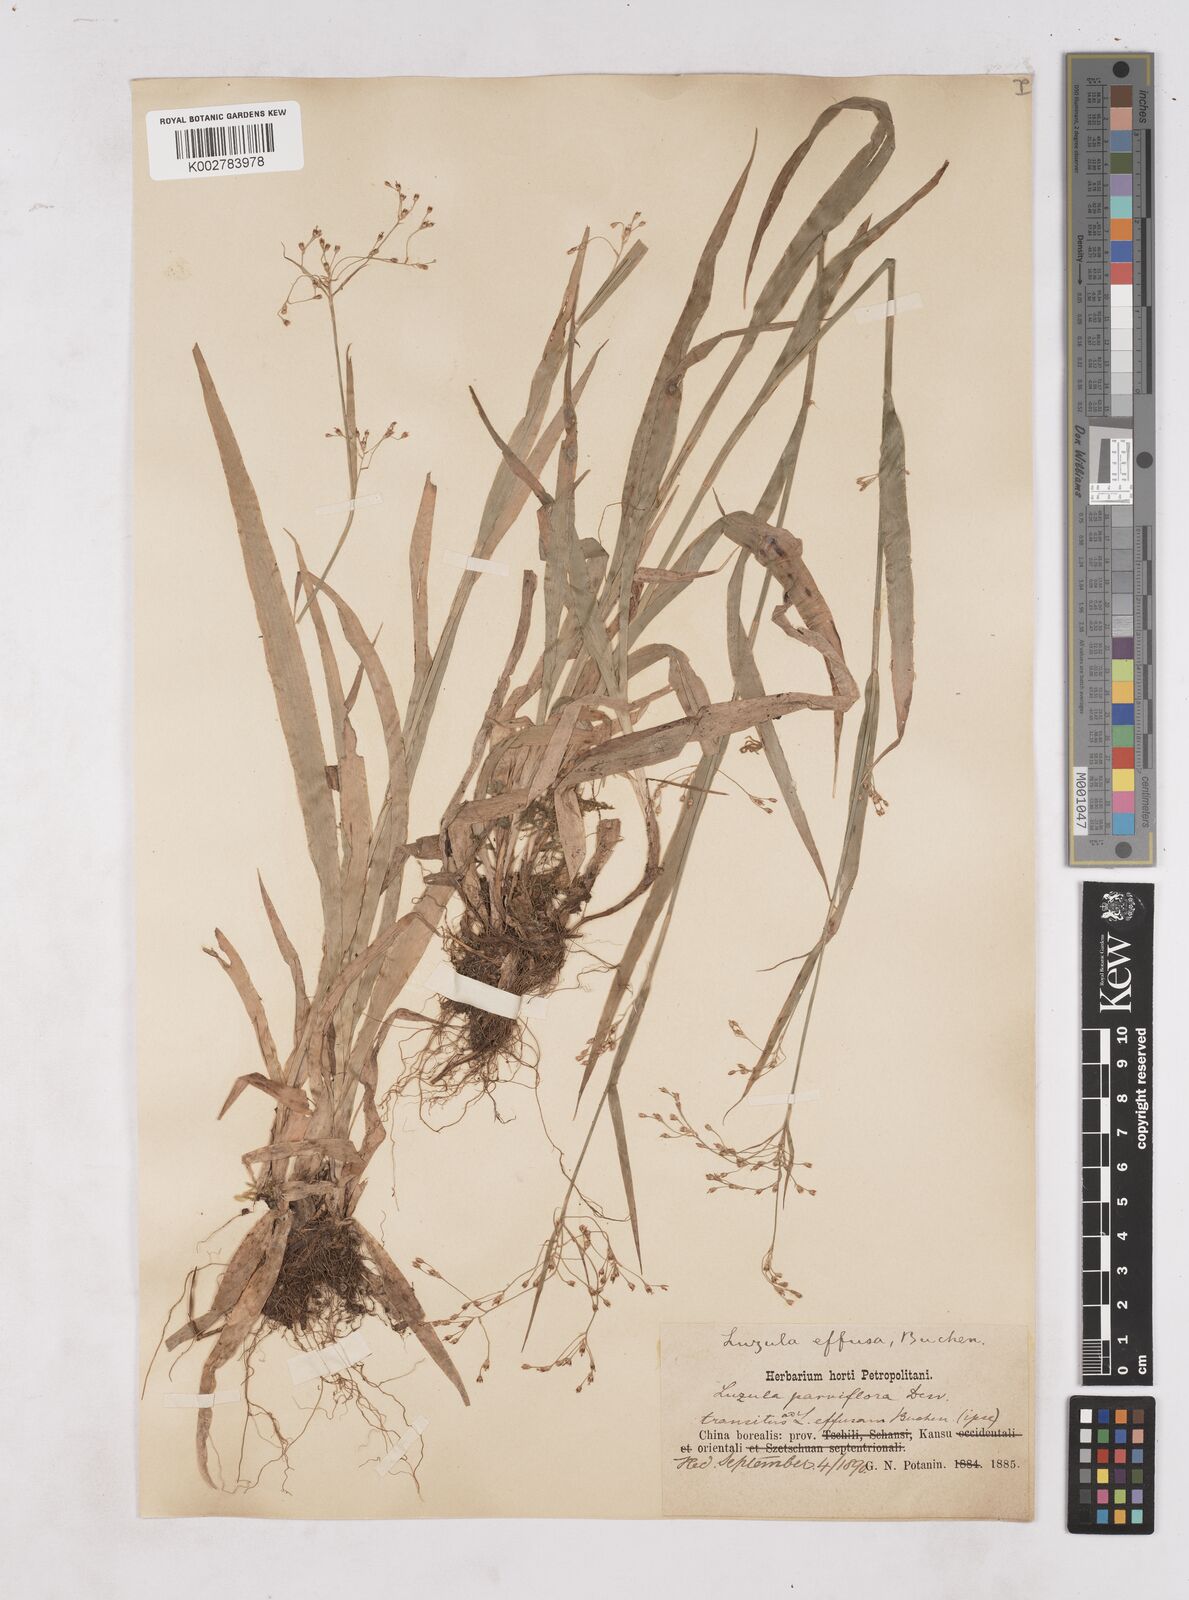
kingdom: Plantae
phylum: Tracheophyta
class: Liliopsida
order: Poales
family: Juncaceae
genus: Luzula
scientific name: Luzula effusa
